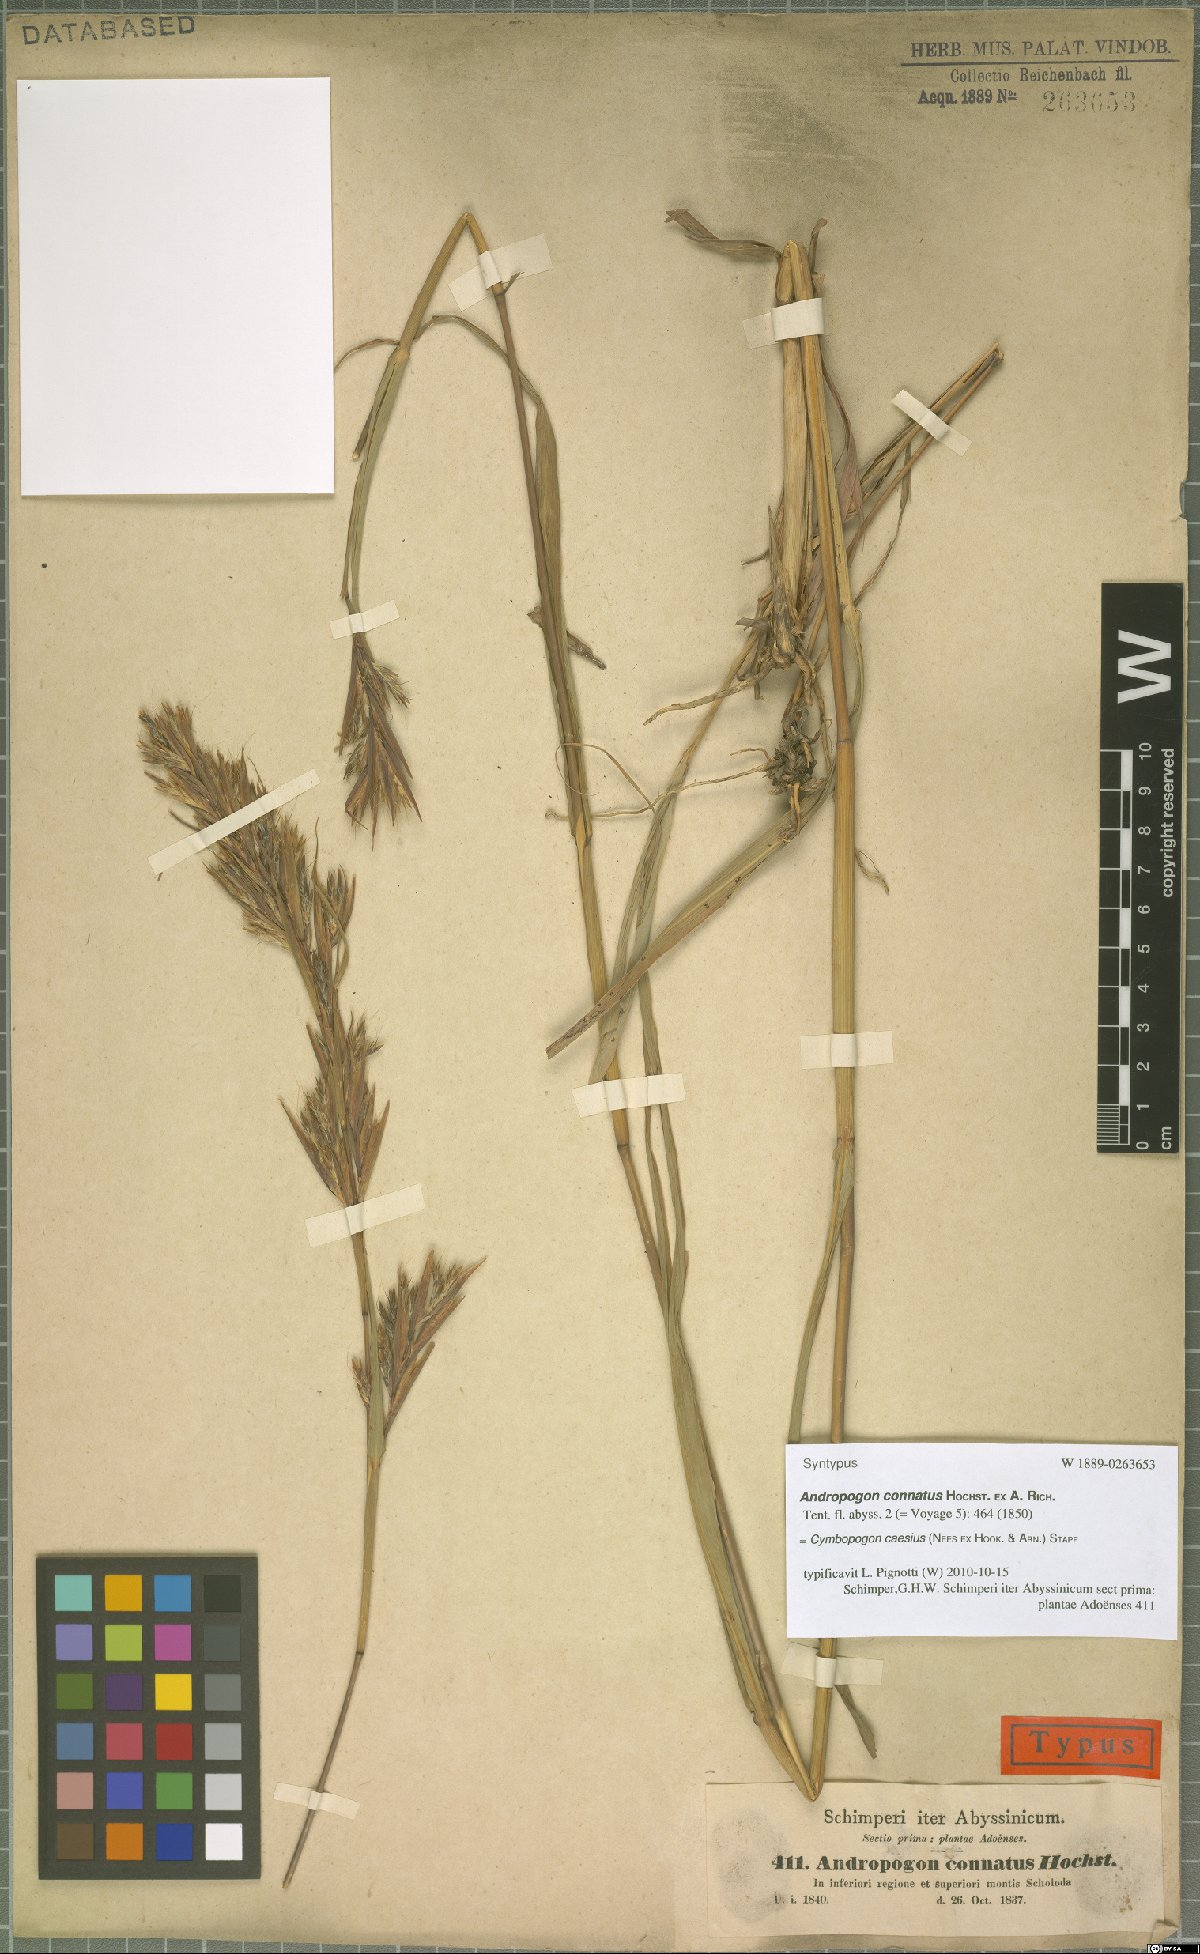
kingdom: Plantae
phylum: Tracheophyta
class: Liliopsida
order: Poales
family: Poaceae
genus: Cymbopogon
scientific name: Cymbopogon caesius
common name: Kachi grass
